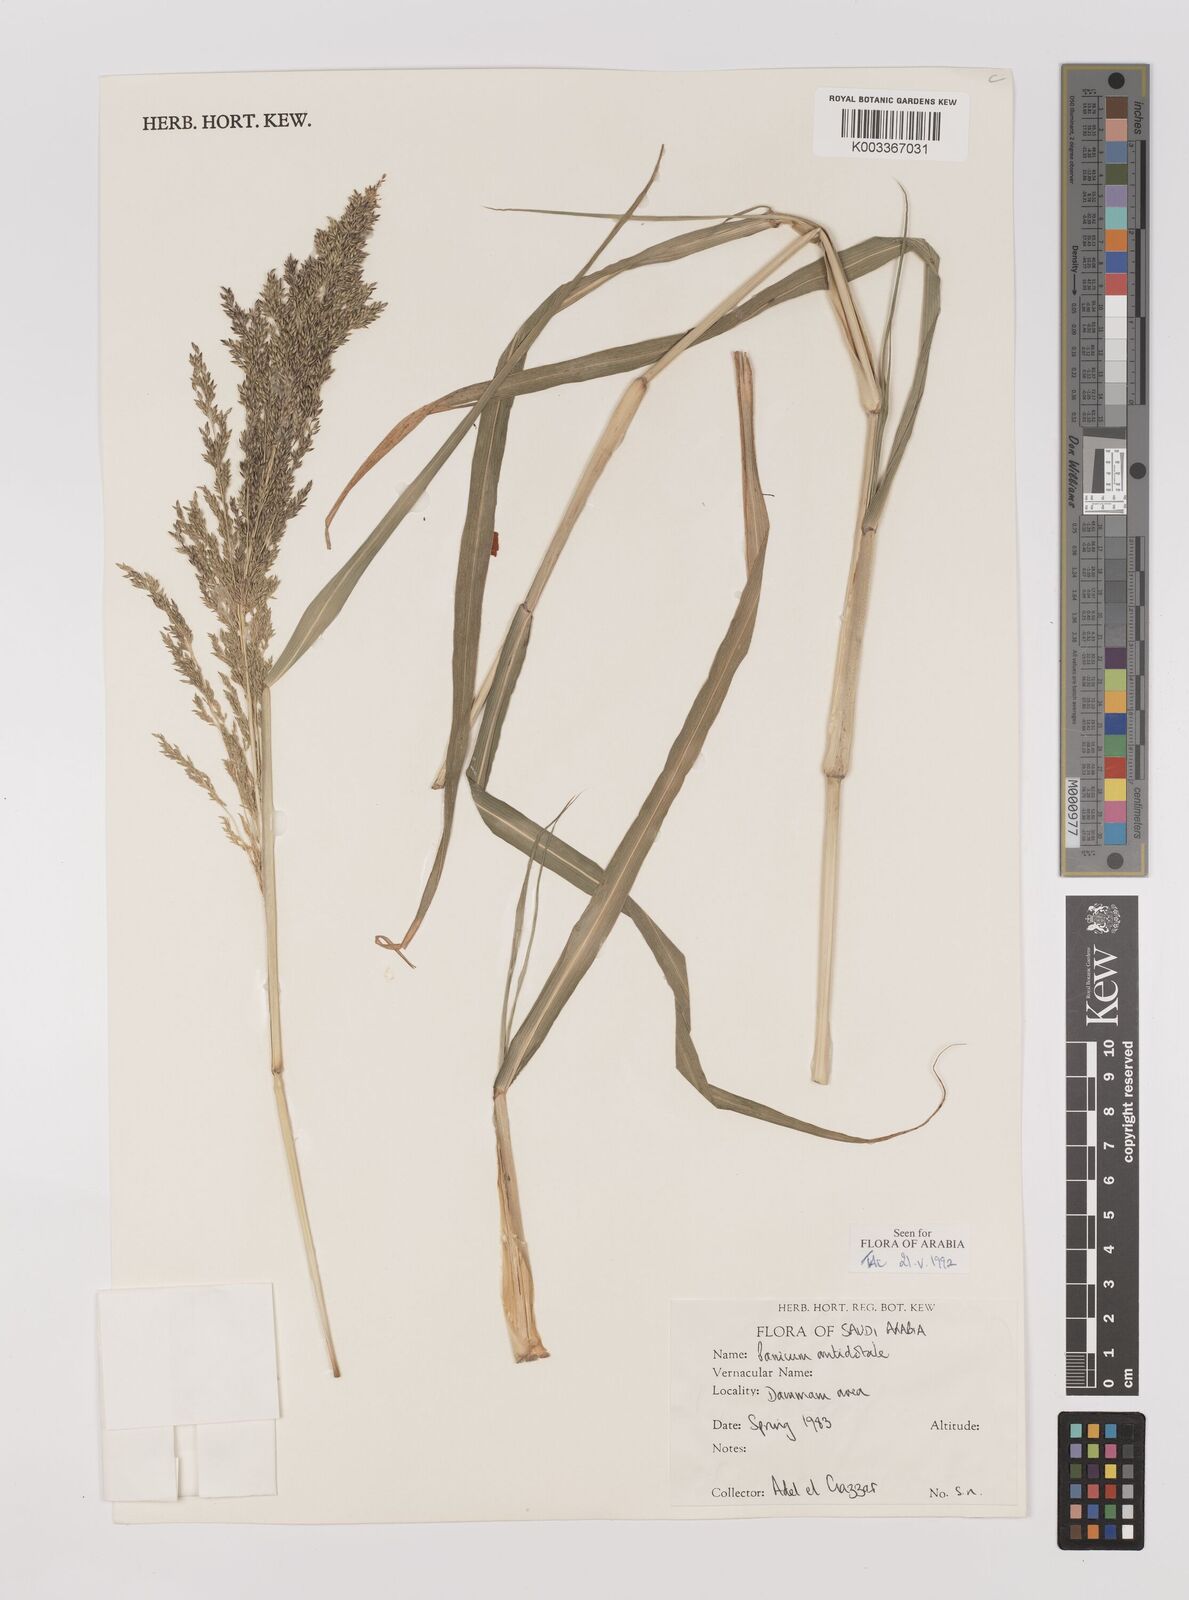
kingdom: Plantae
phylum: Tracheophyta
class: Liliopsida
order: Poales
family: Poaceae
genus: Panicum
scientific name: Panicum antidotale
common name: Blue panicum
